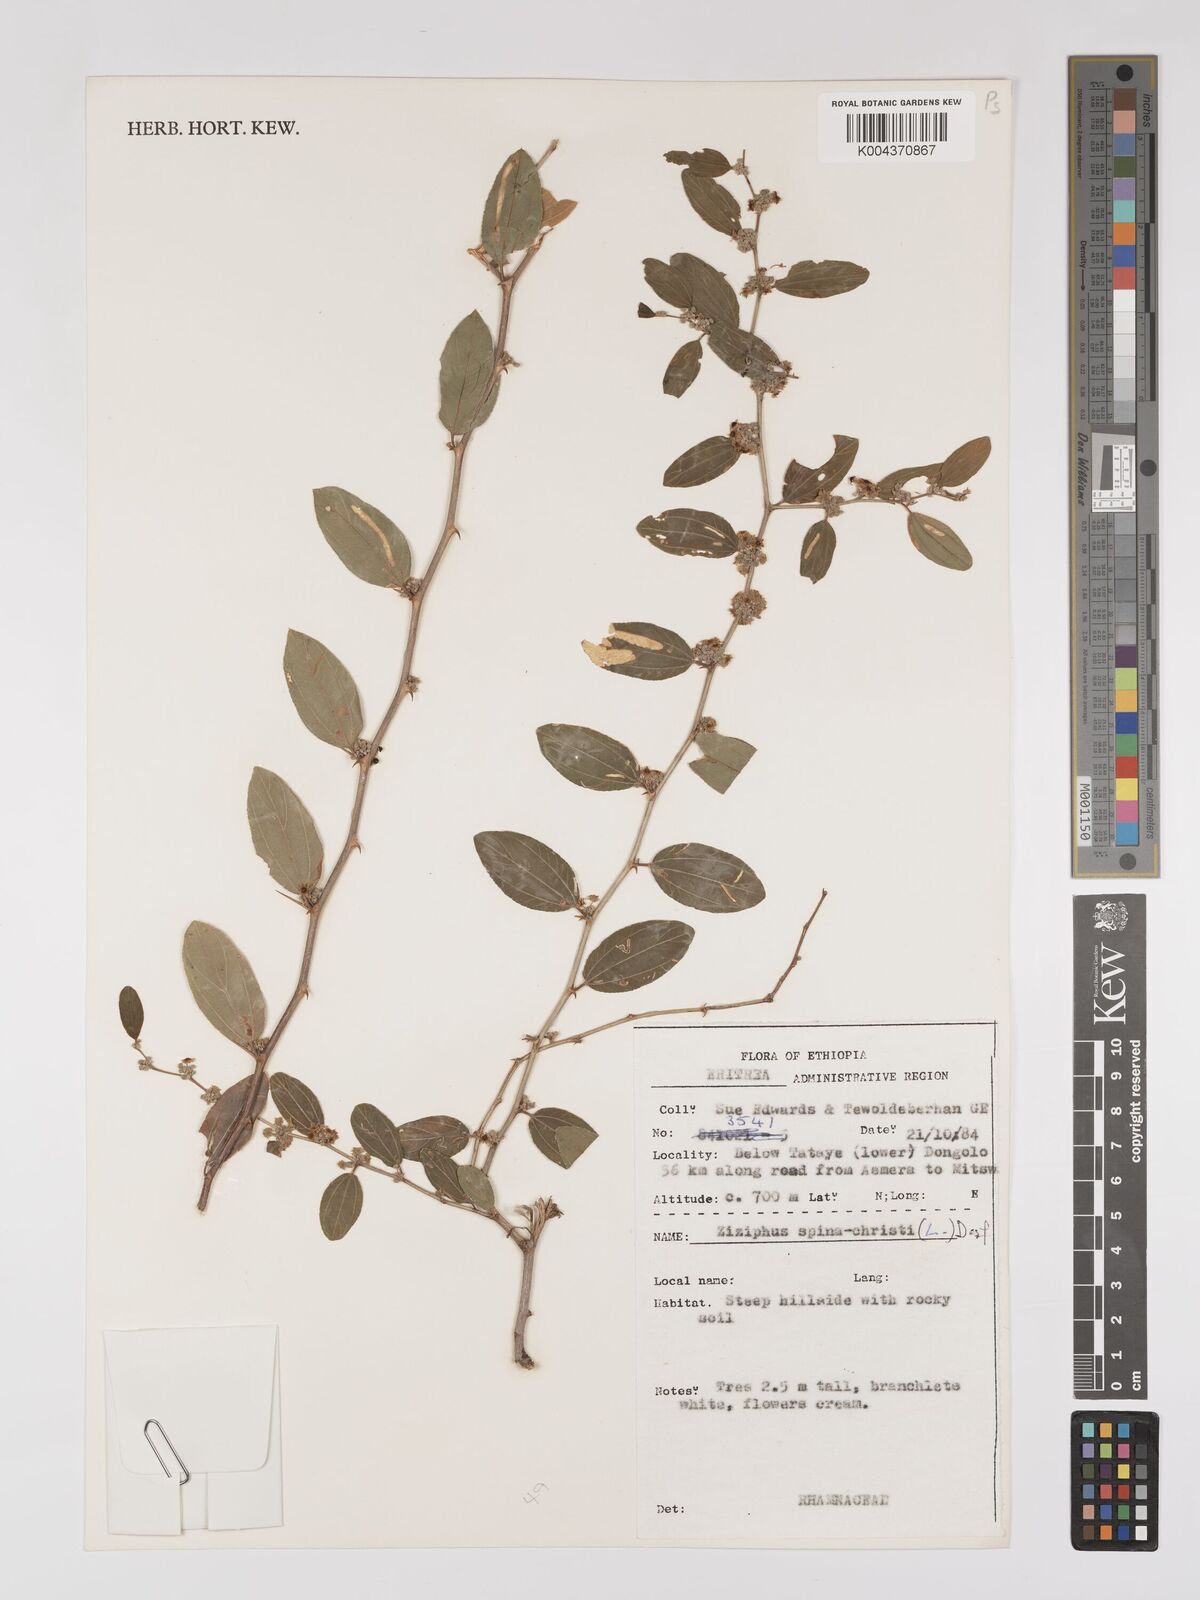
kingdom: Plantae
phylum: Tracheophyta
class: Magnoliopsida
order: Rosales
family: Rhamnaceae
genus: Ziziphus
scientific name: Ziziphus spina-christi
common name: Syrian christ-thorn
